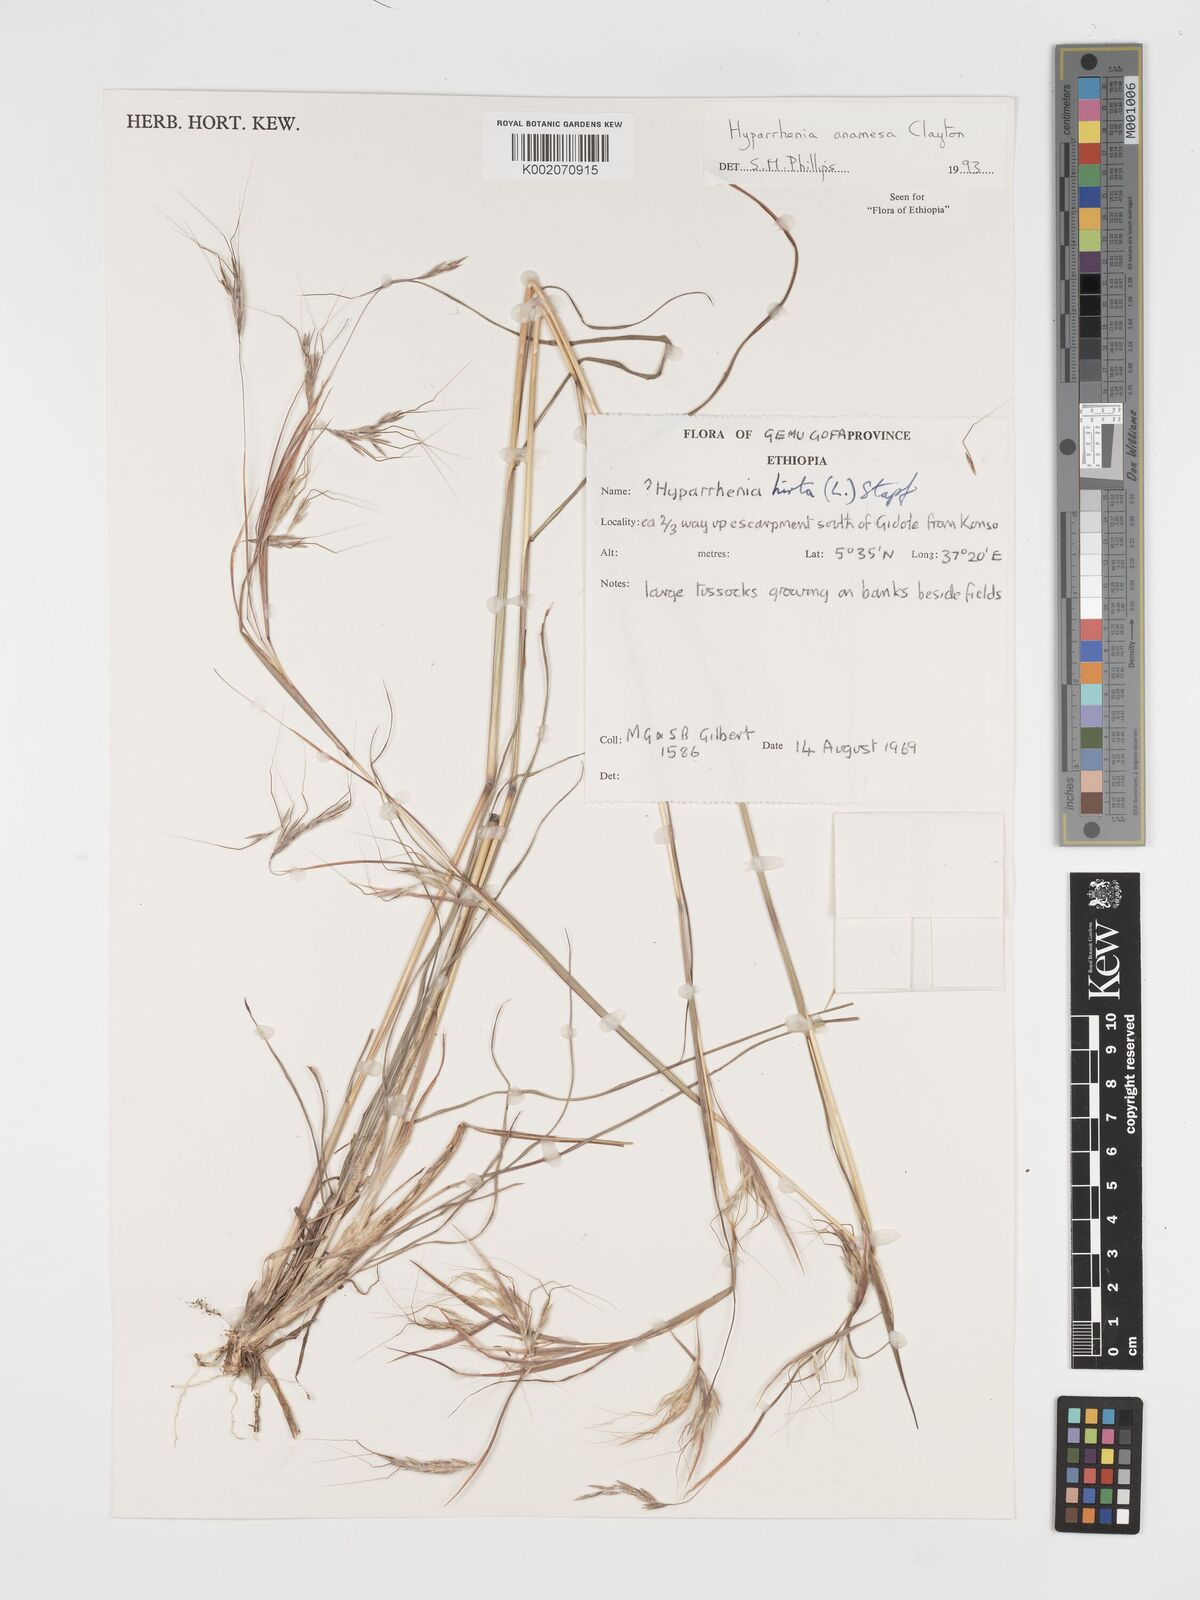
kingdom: Plantae
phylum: Tracheophyta
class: Liliopsida
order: Poales
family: Poaceae
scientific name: Poaceae
